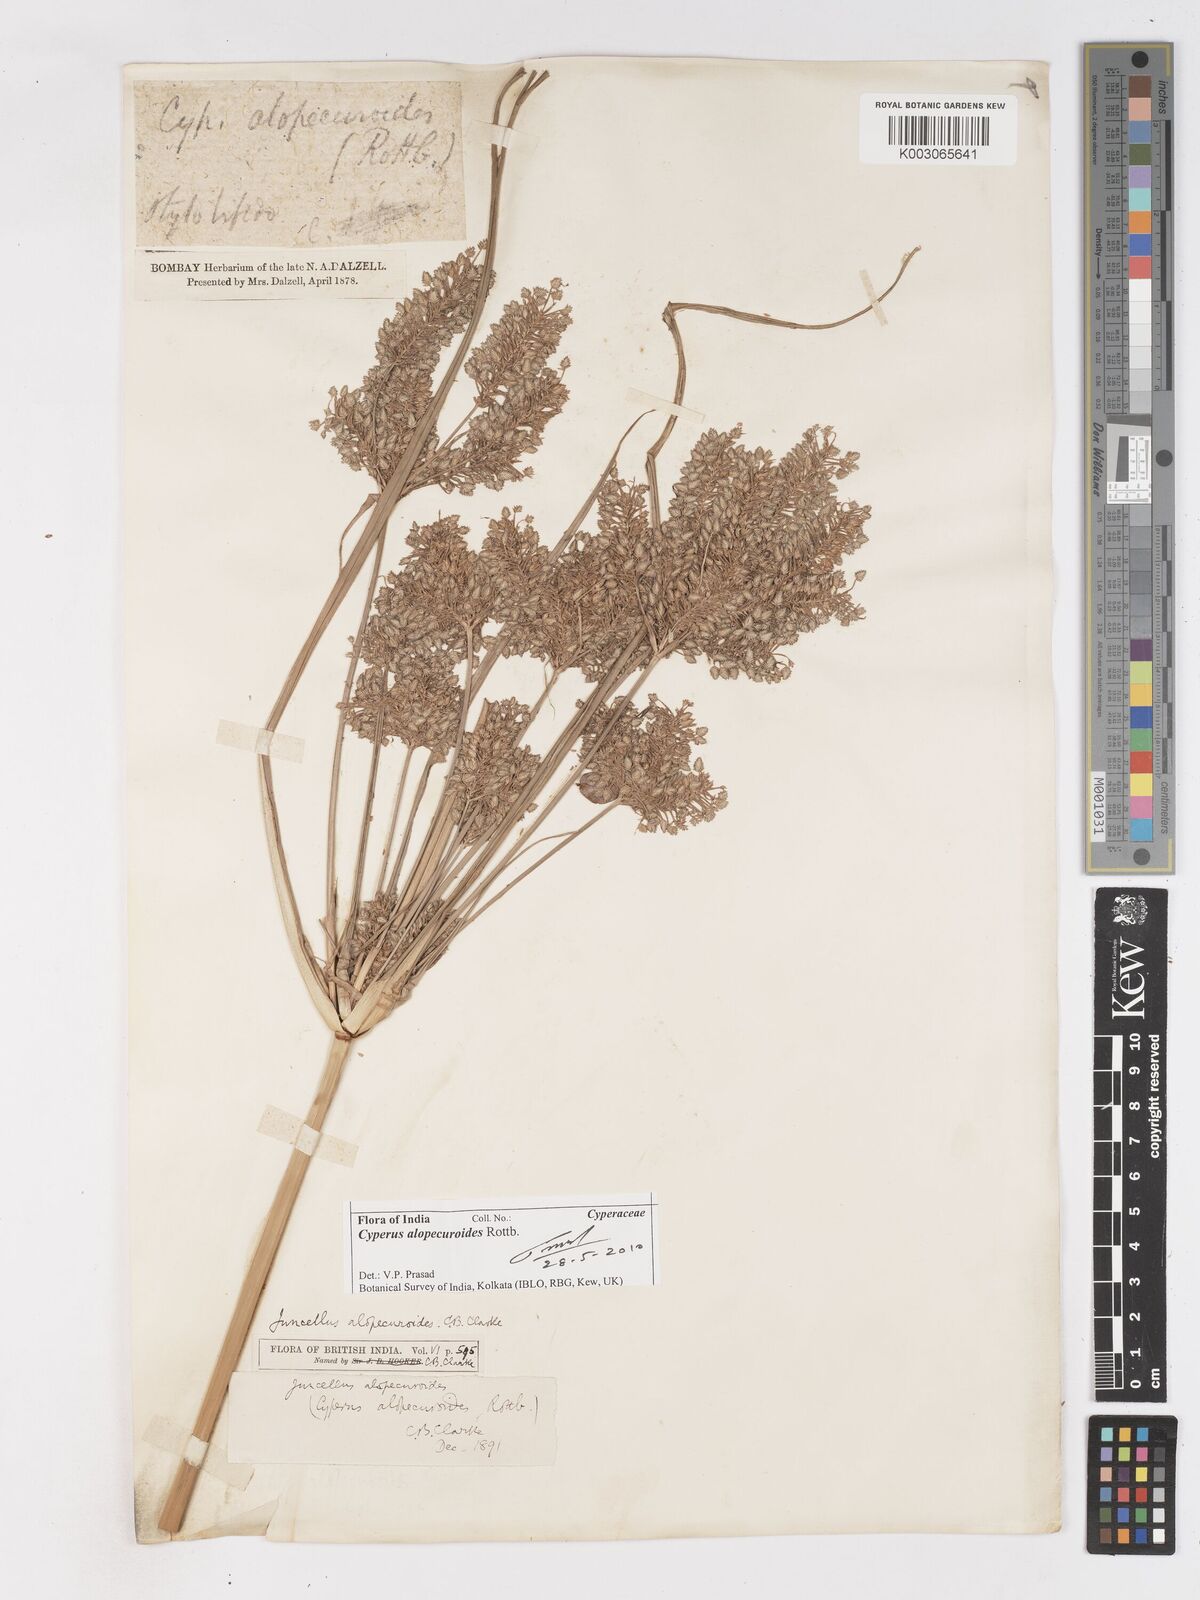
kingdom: Plantae
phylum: Tracheophyta
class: Liliopsida
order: Poales
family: Cyperaceae
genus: Cyperus
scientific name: Cyperus alopecuroides
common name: Foxtail flatsedge
